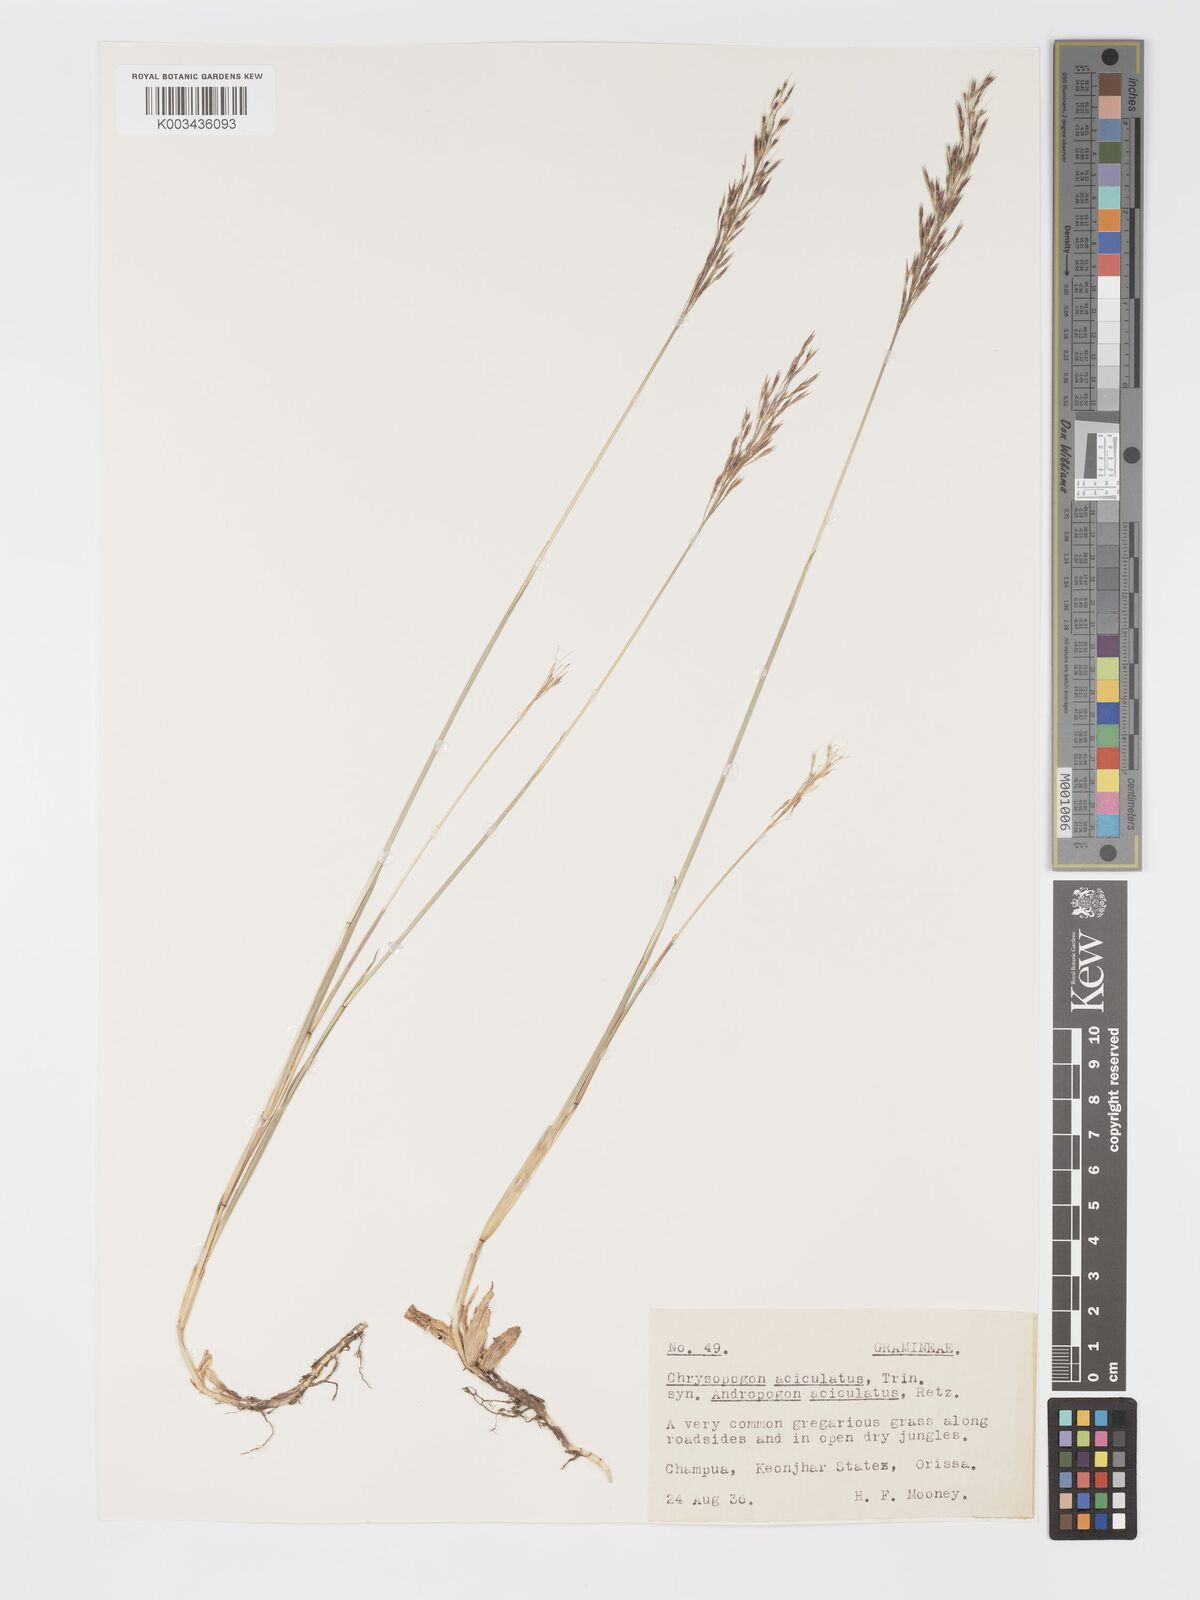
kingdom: Plantae
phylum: Tracheophyta
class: Liliopsida
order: Poales
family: Poaceae
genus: Chrysopogon
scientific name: Chrysopogon aciculatus
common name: Pilipiliula
